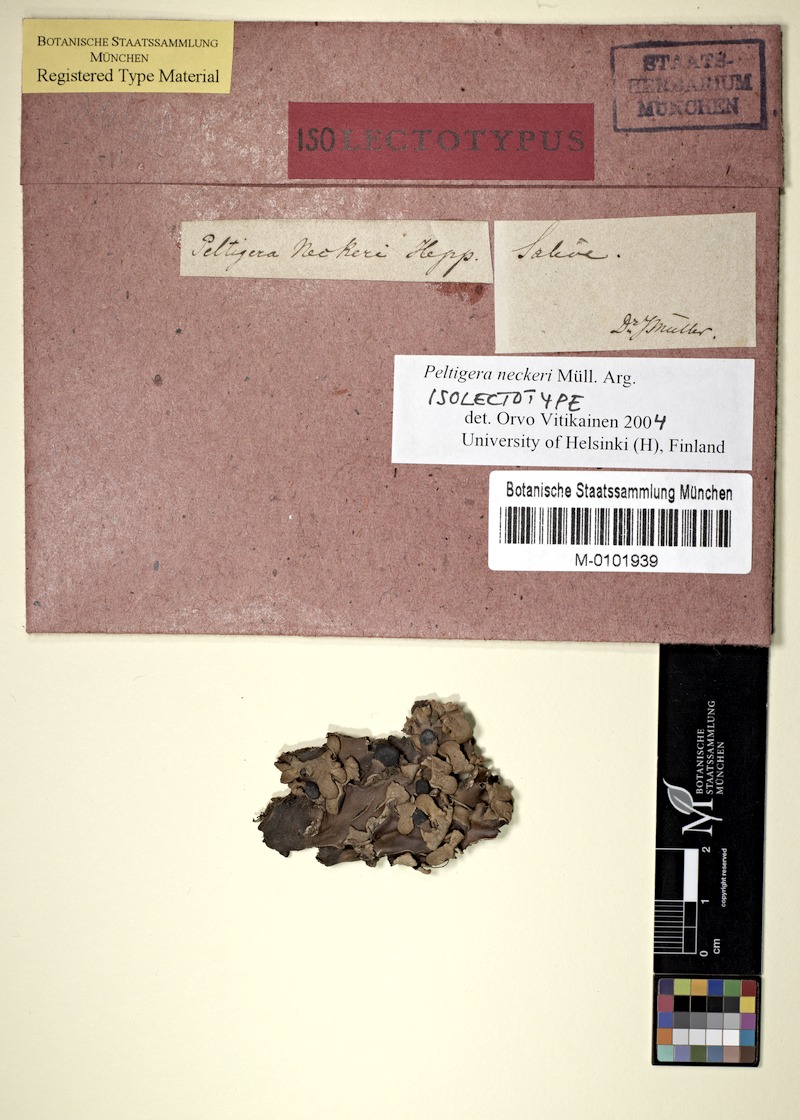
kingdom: Fungi
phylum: Ascomycota
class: Lecanoromycetes
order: Peltigerales
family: Peltigeraceae
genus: Peltigera
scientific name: Peltigera neckeri
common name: Blacksaddle pelt lichen
